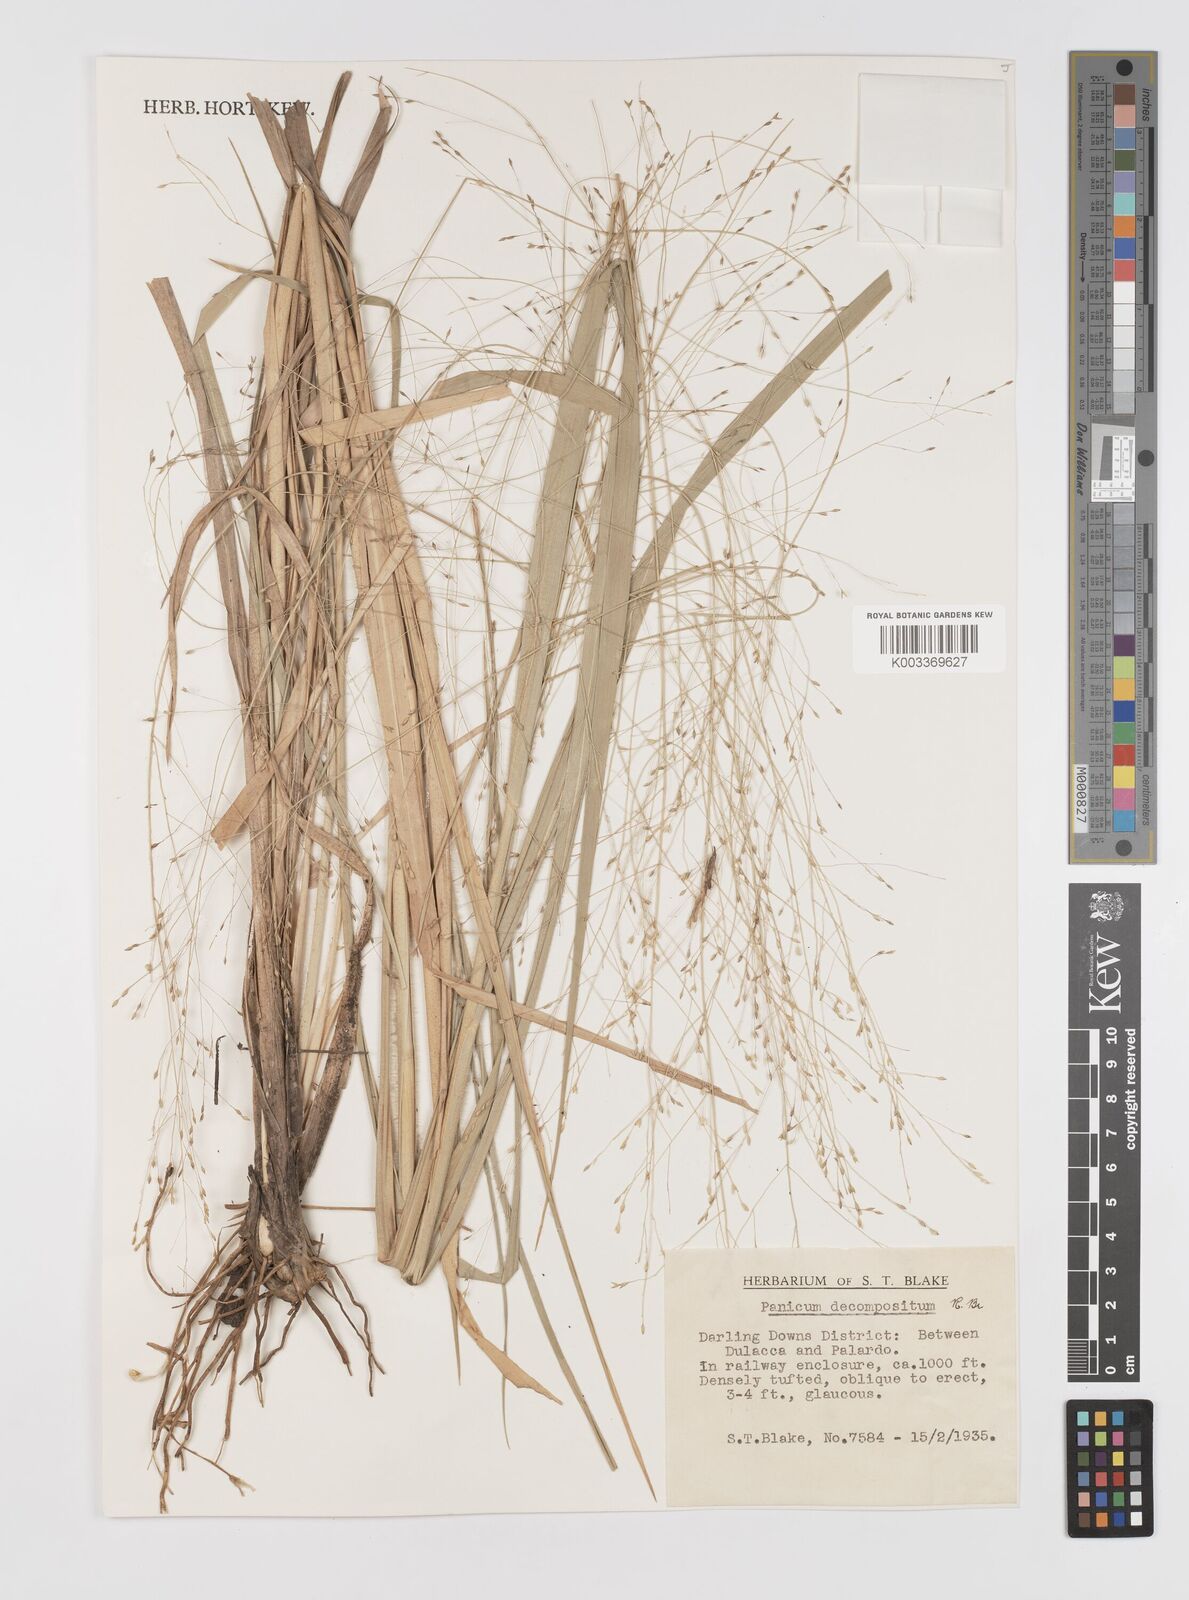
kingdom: Plantae
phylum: Tracheophyta
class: Liliopsida
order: Poales
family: Poaceae
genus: Panicum
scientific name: Panicum decompositum
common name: Australian millet
